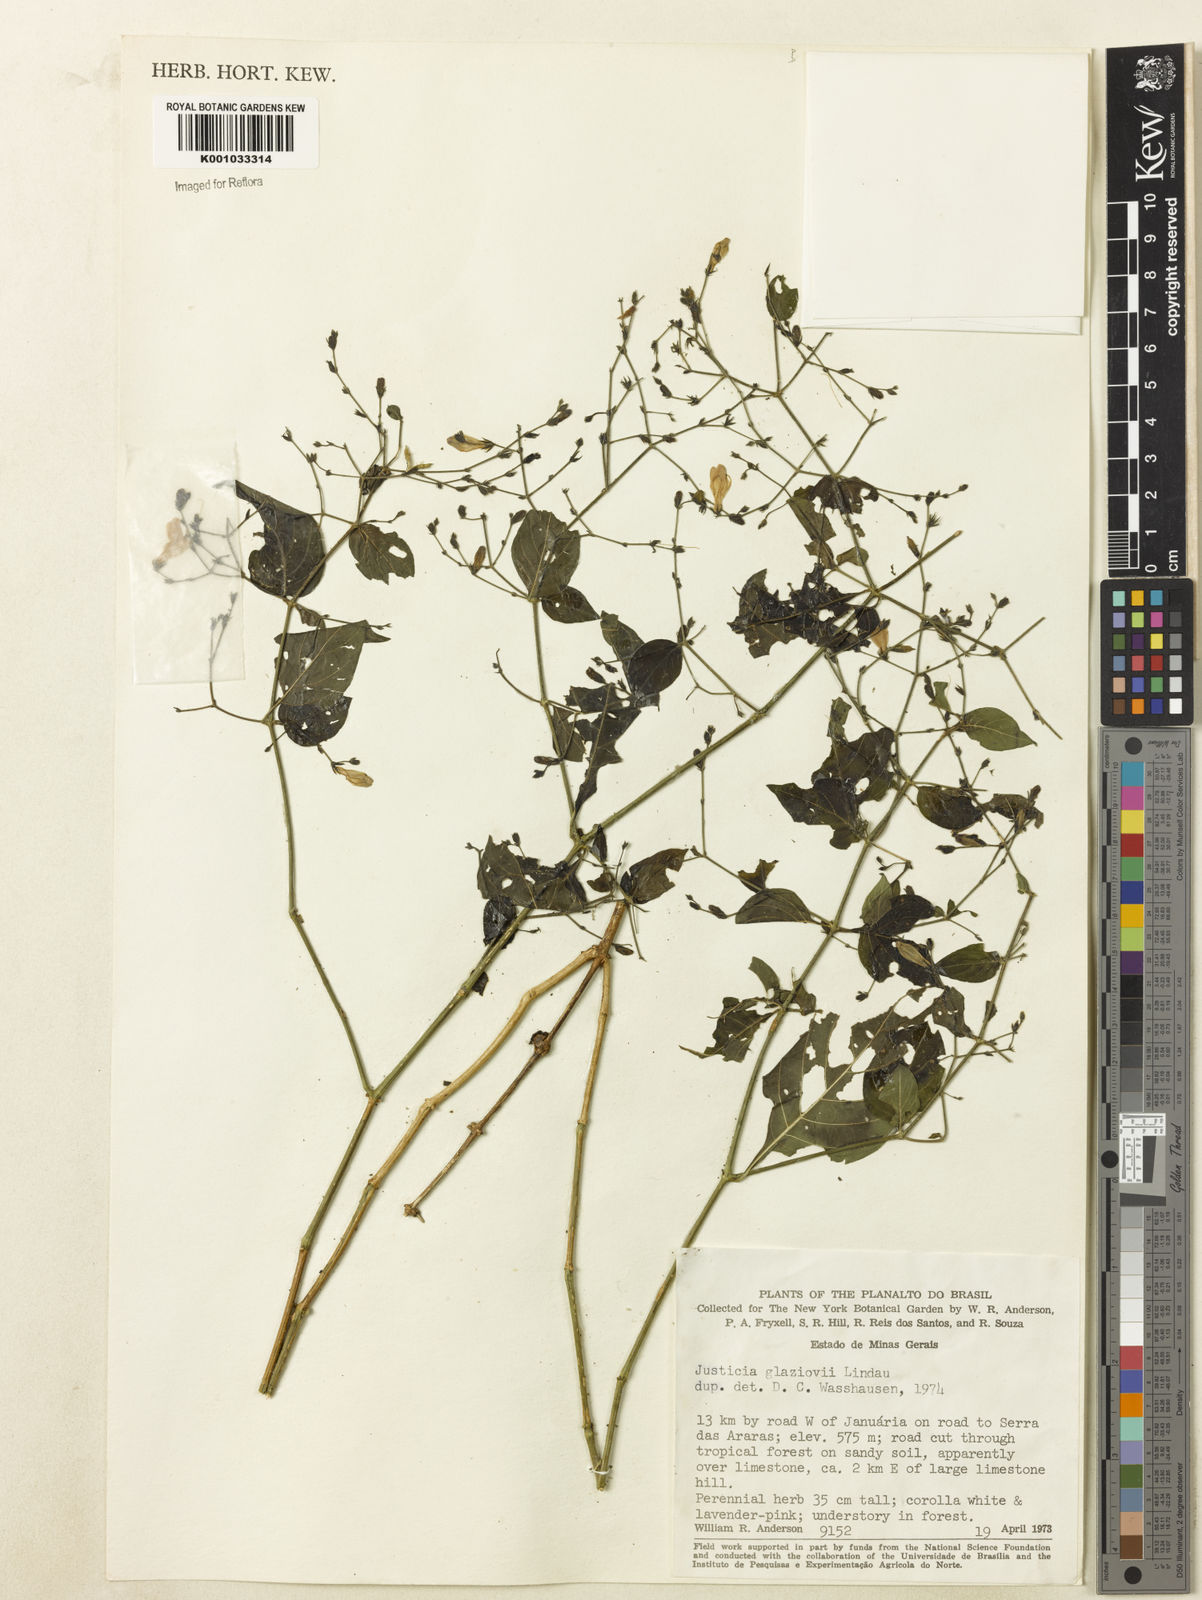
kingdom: Plantae
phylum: Tracheophyta
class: Magnoliopsida
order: Lamiales
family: Acanthaceae
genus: Justicia
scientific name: Justicia rubriflora
